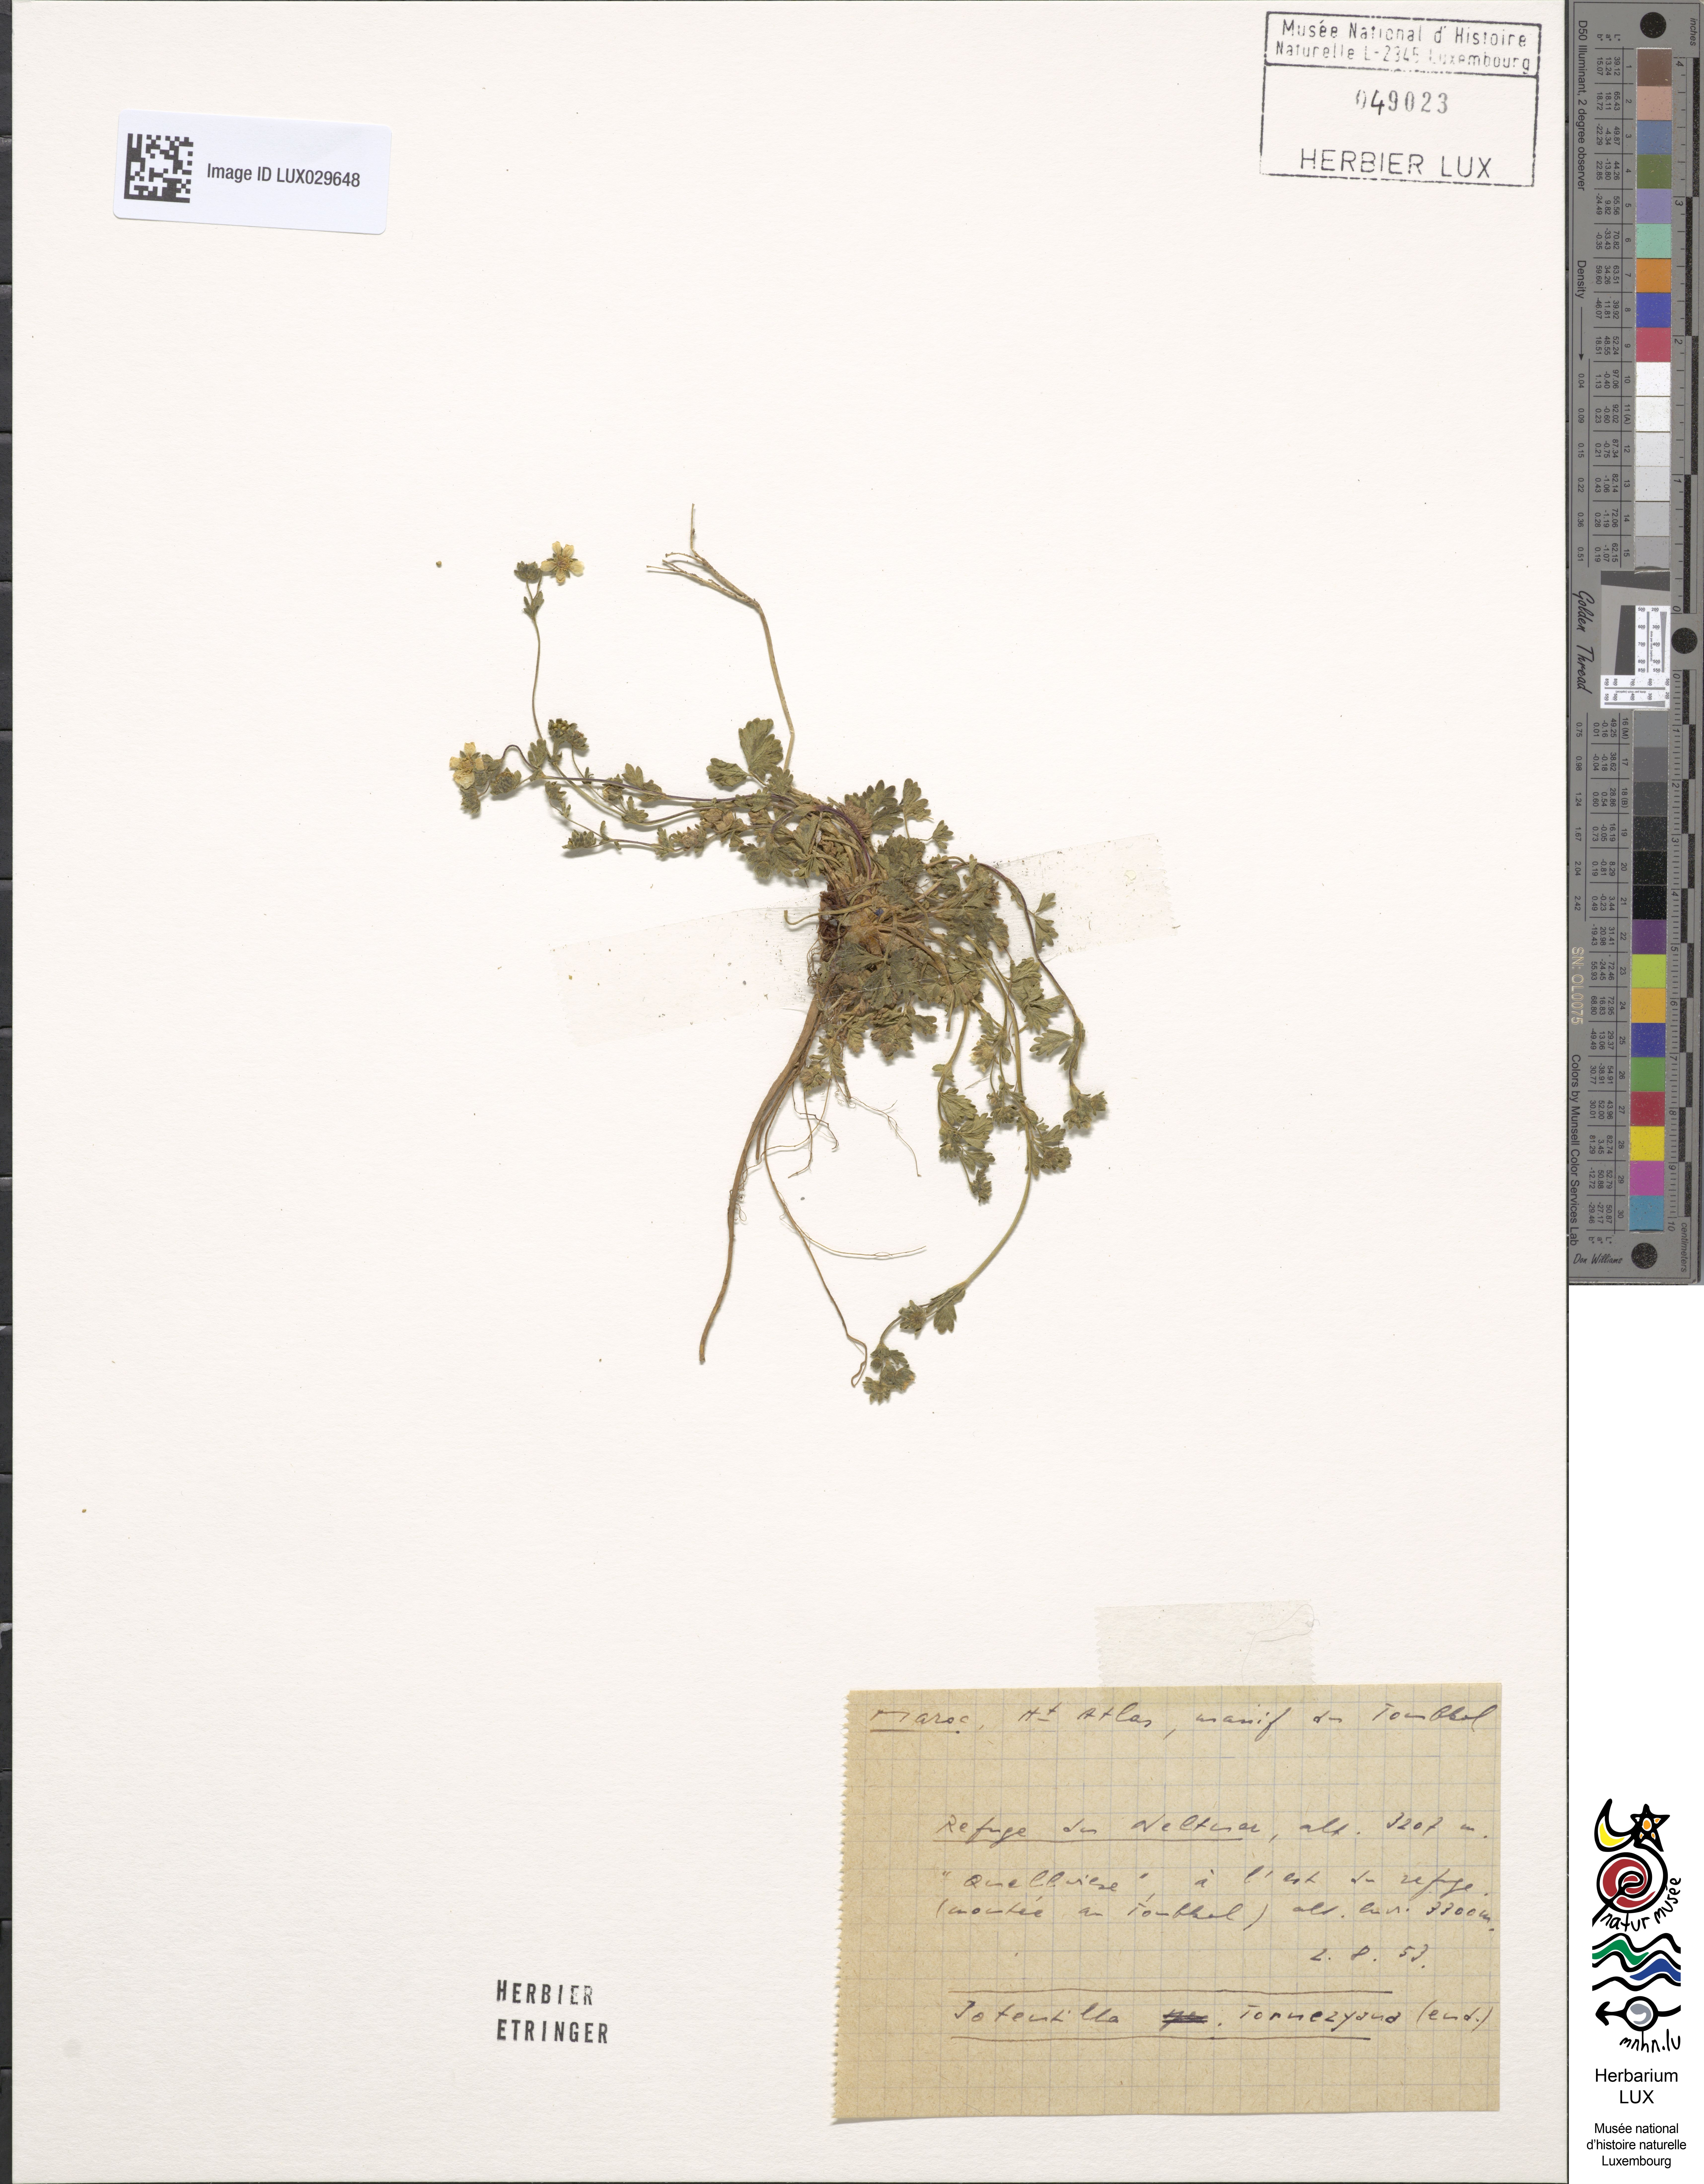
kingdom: Plantae
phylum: Tracheophyta
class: Magnoliopsida
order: Rosales
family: Rosaceae
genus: Potentilla
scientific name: Potentilla tornezyana
